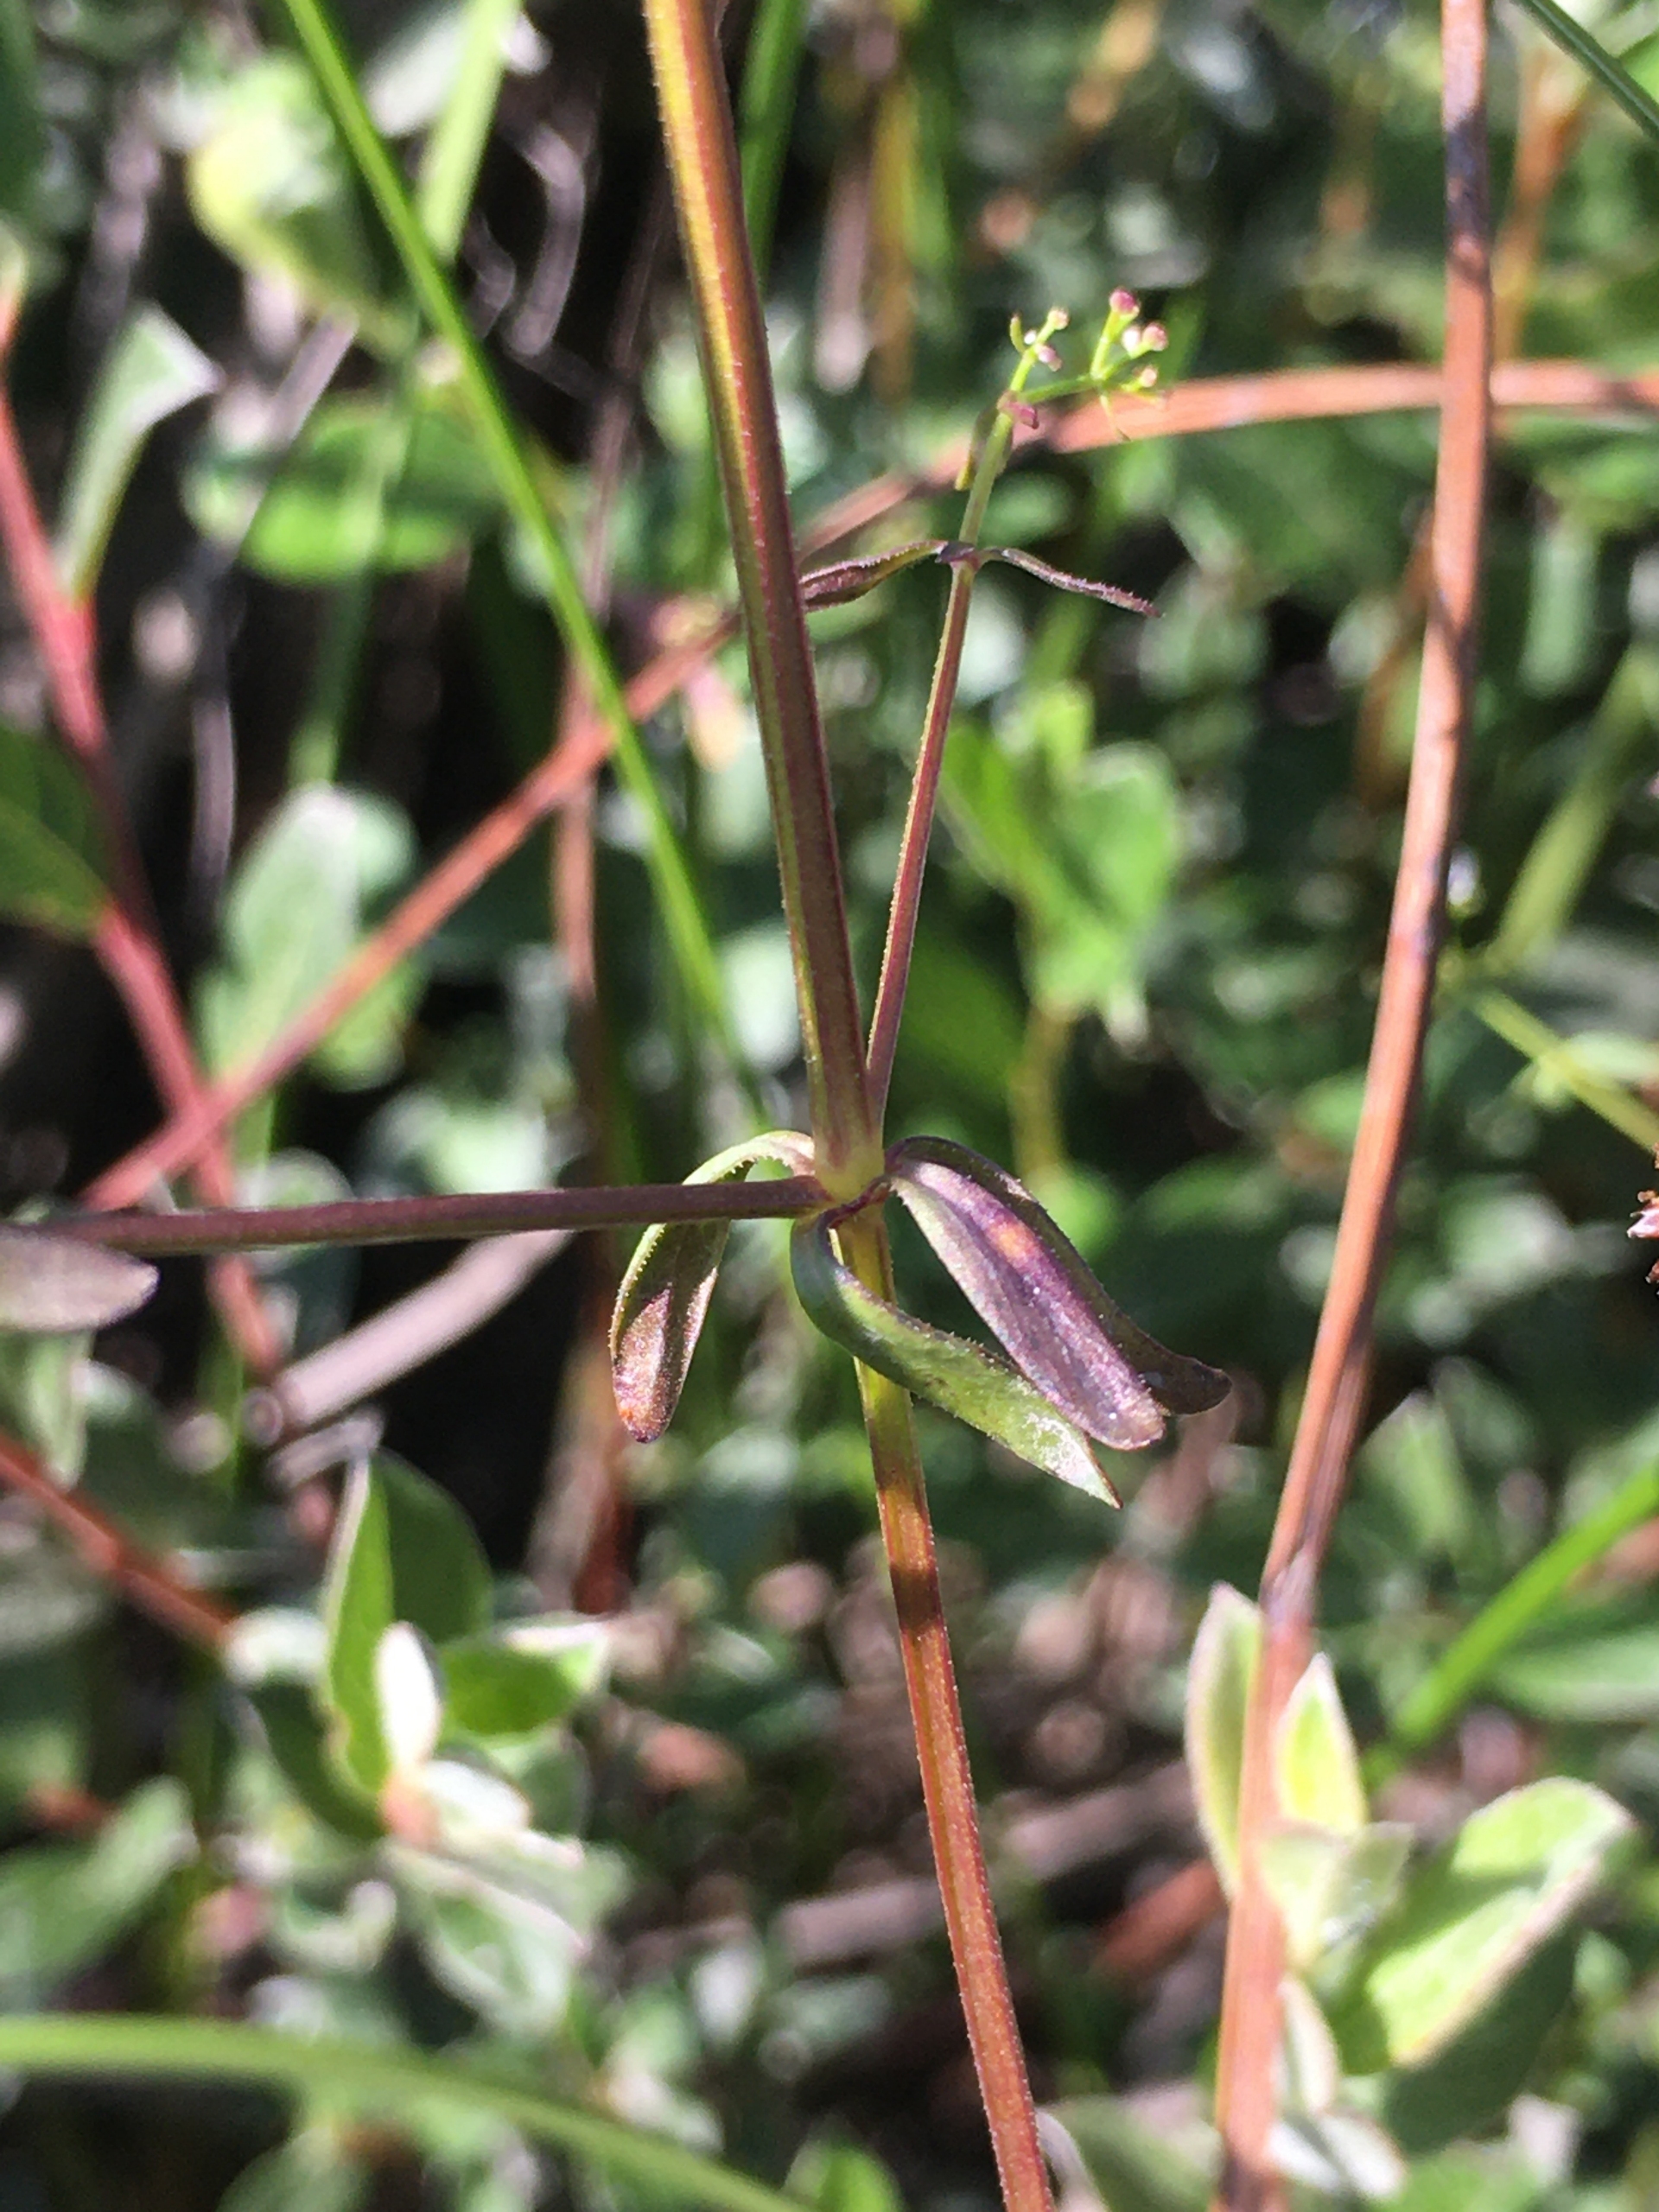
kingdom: Plantae
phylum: Tracheophyta
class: Magnoliopsida
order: Gentianales
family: Rubiaceae
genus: Galium
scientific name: Galium palustre
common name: Kær-snerre
